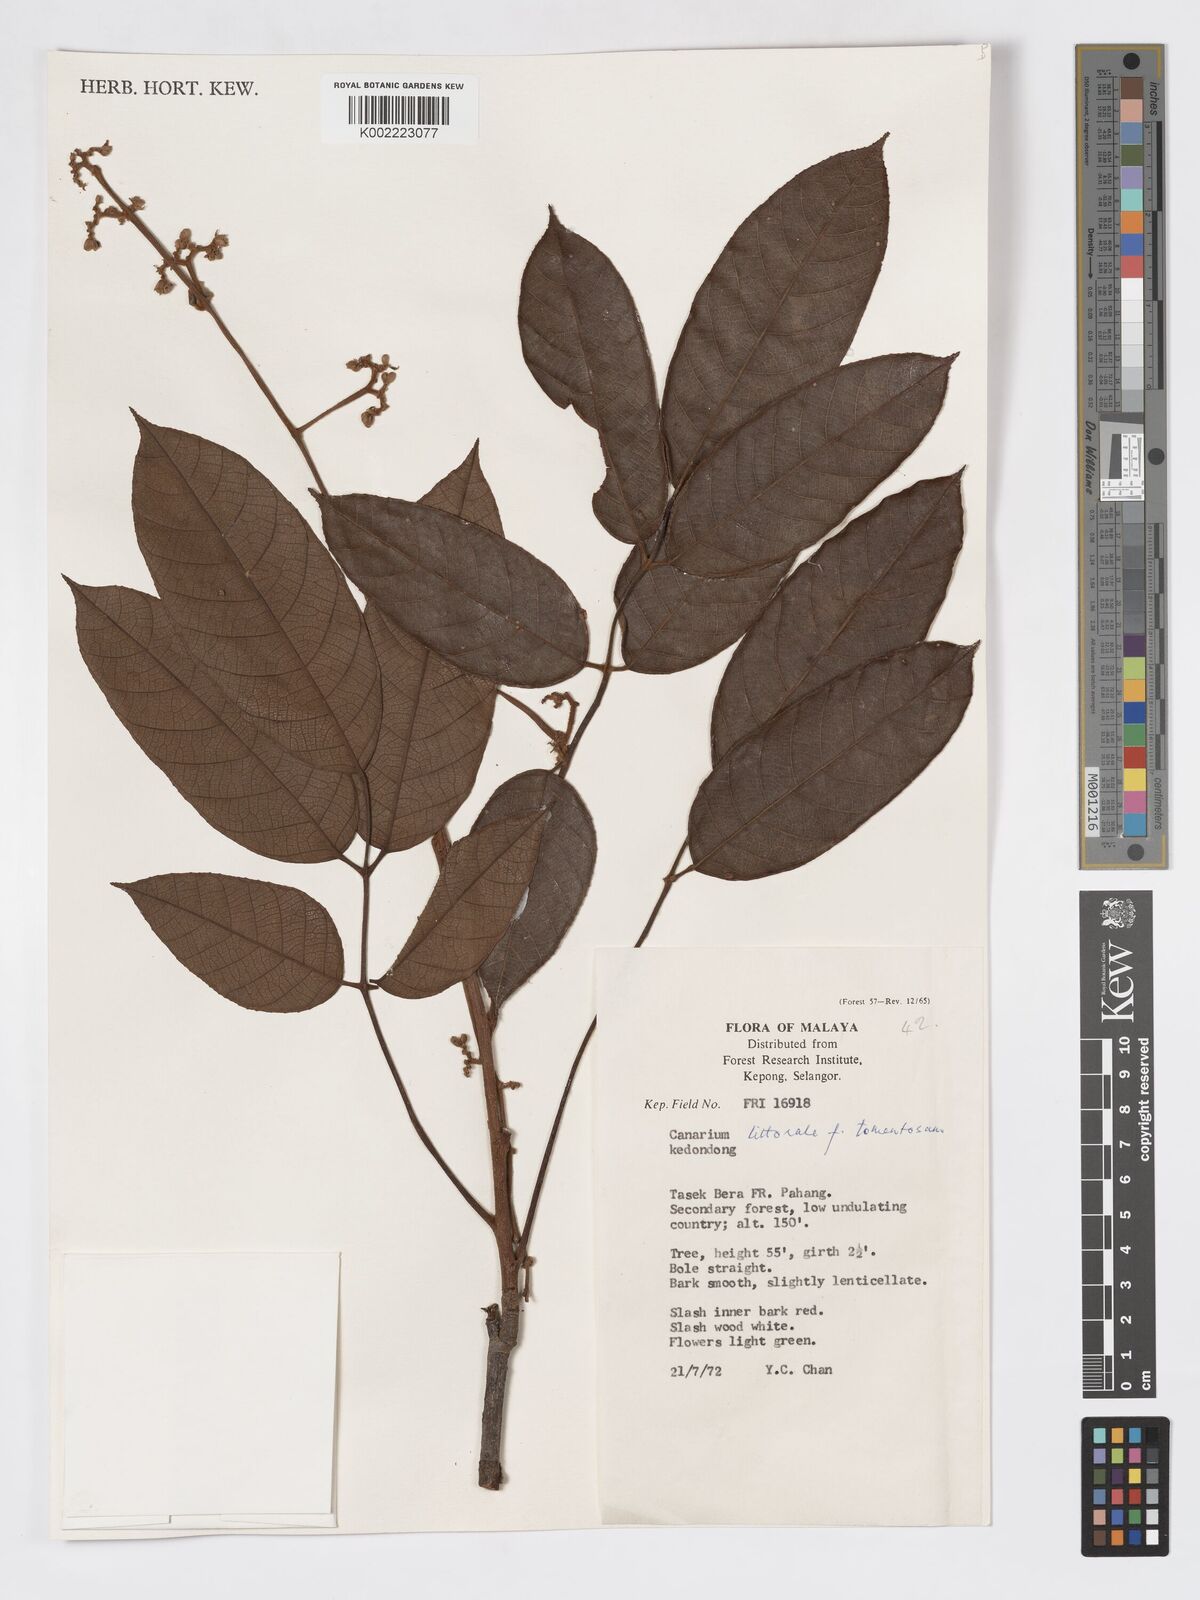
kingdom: Plantae
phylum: Tracheophyta
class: Magnoliopsida
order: Sapindales
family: Burseraceae
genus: Canarium
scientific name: Canarium littorale
